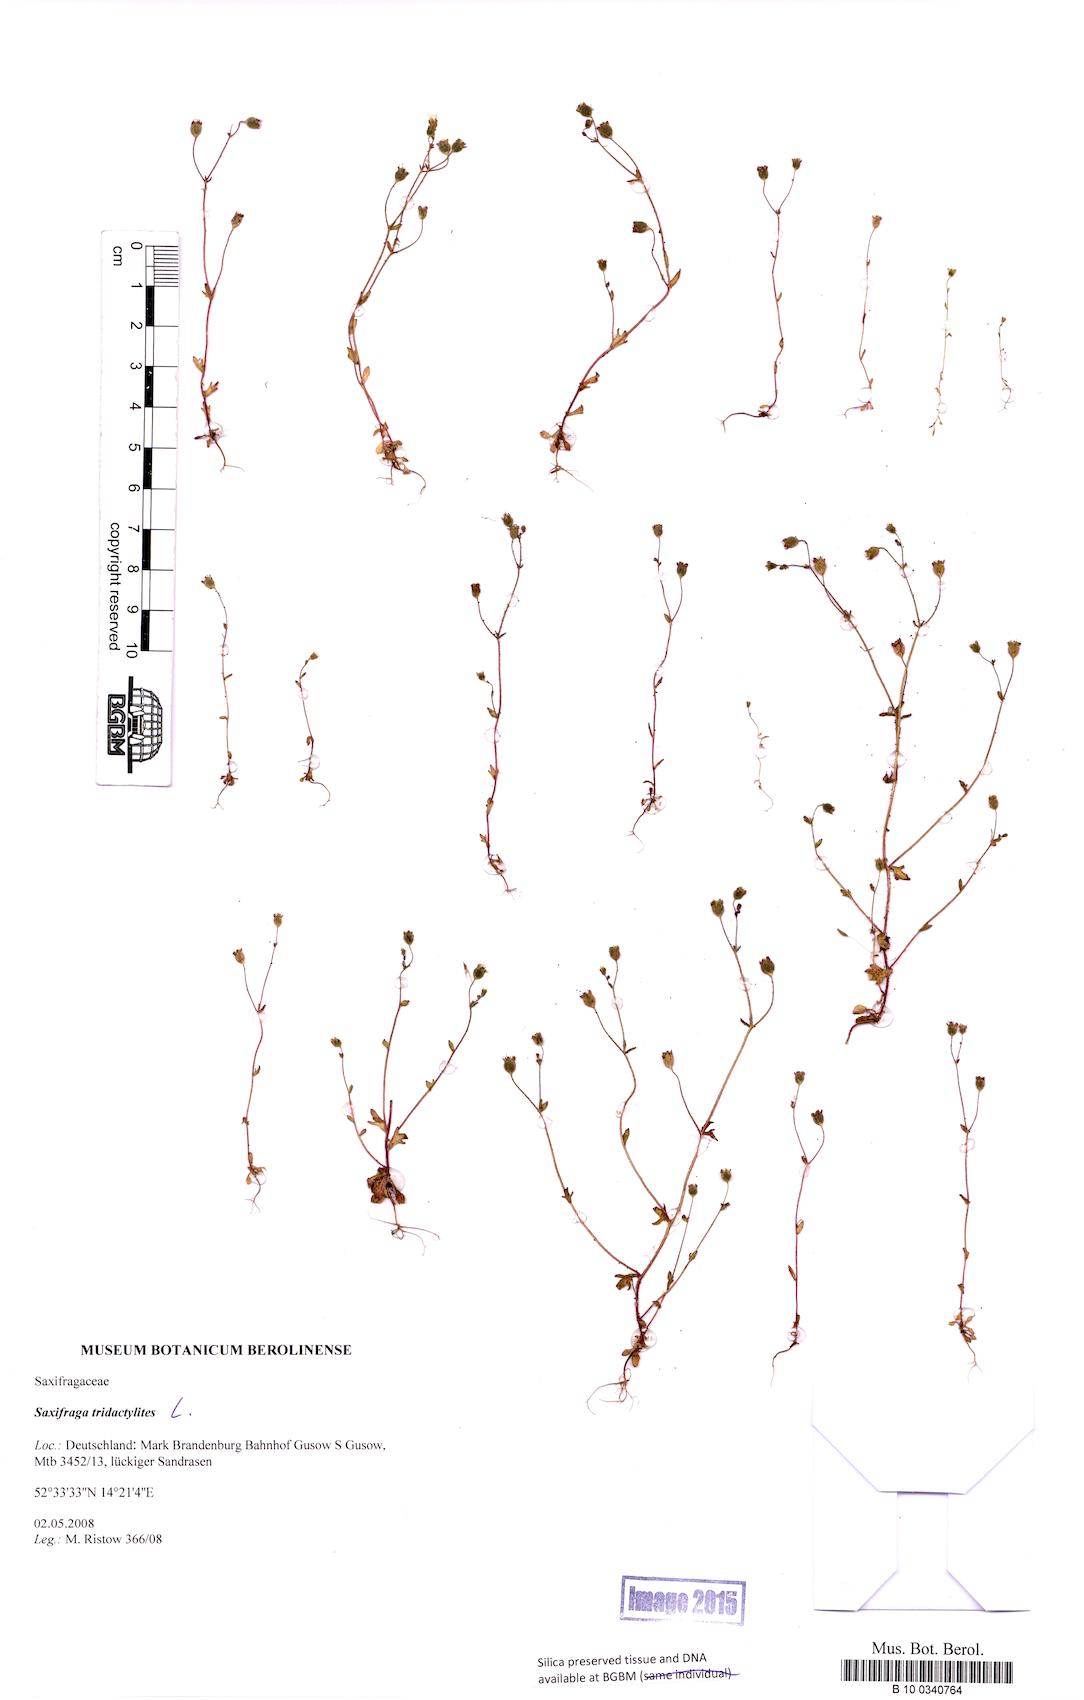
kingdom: Plantae
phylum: Tracheophyta
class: Magnoliopsida
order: Saxifragales
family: Saxifragaceae
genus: Saxifraga
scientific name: Saxifraga tridactylites
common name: Rue-leaved saxifrage
